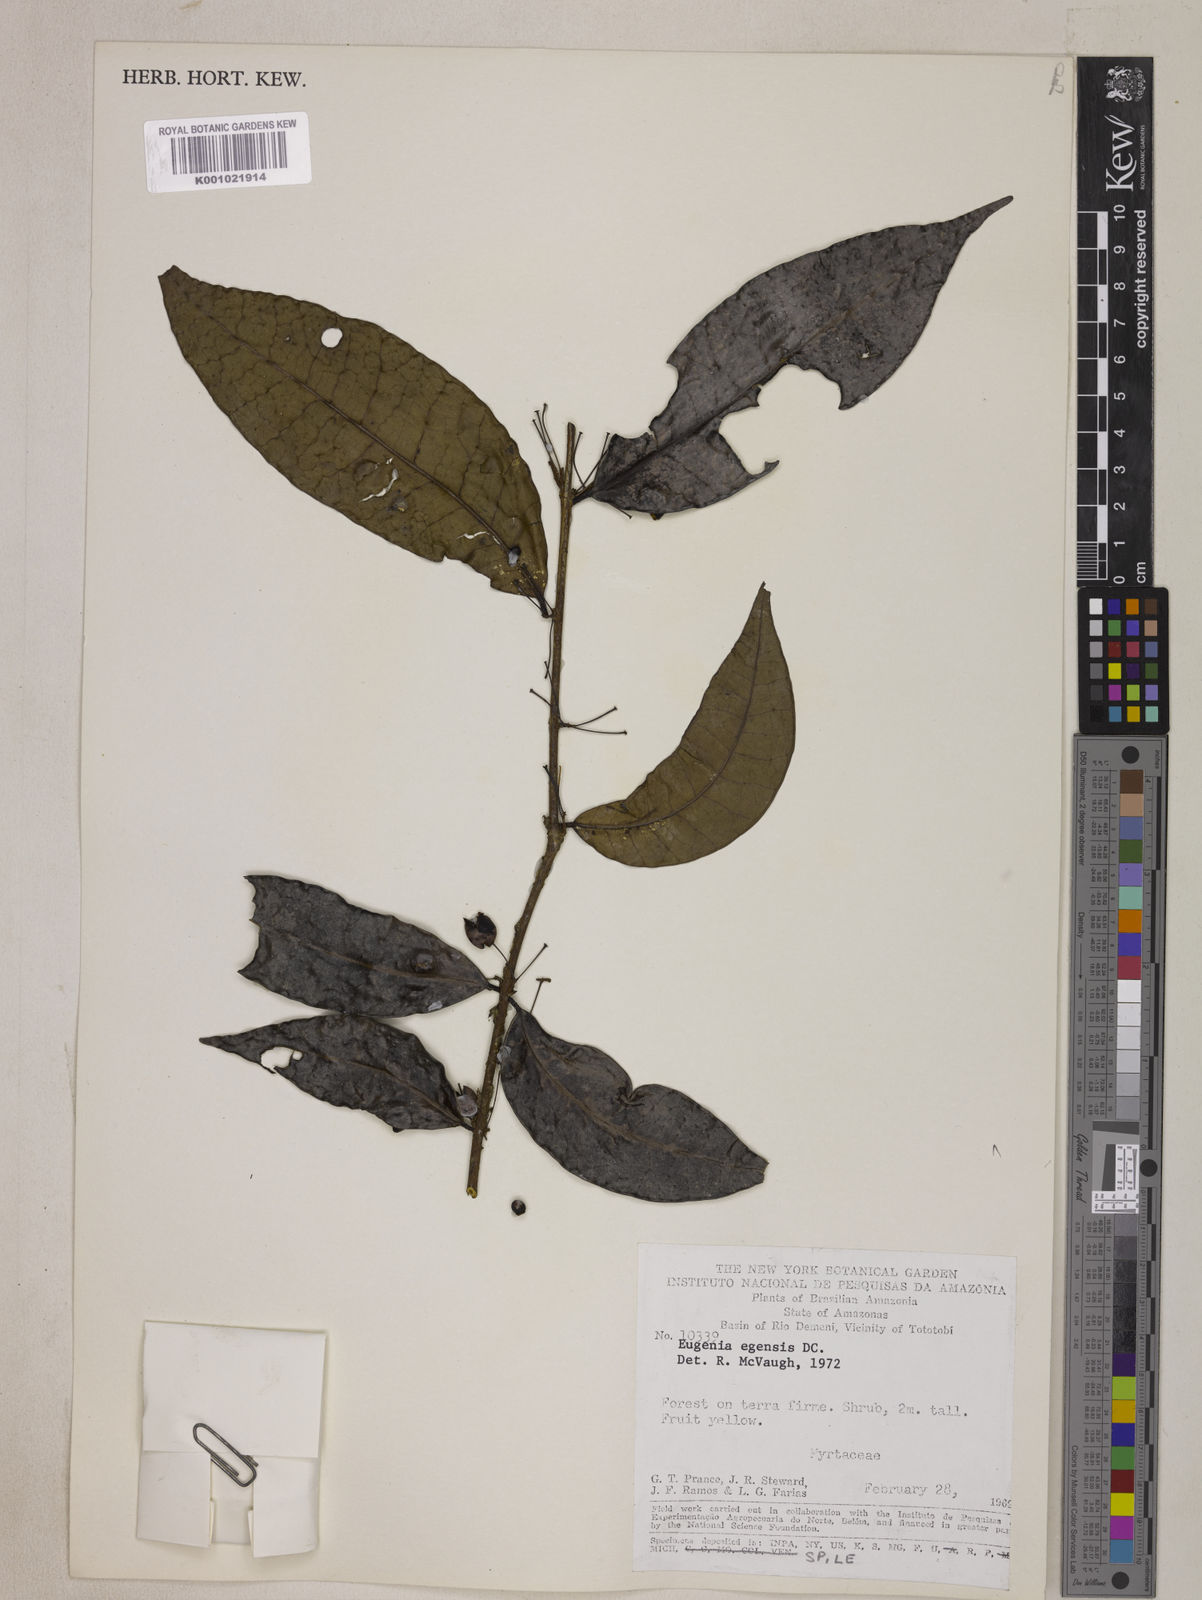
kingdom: Plantae
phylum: Tracheophyta
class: Magnoliopsida
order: Myrtales
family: Myrtaceae
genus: Eugenia
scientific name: Eugenia egensis
